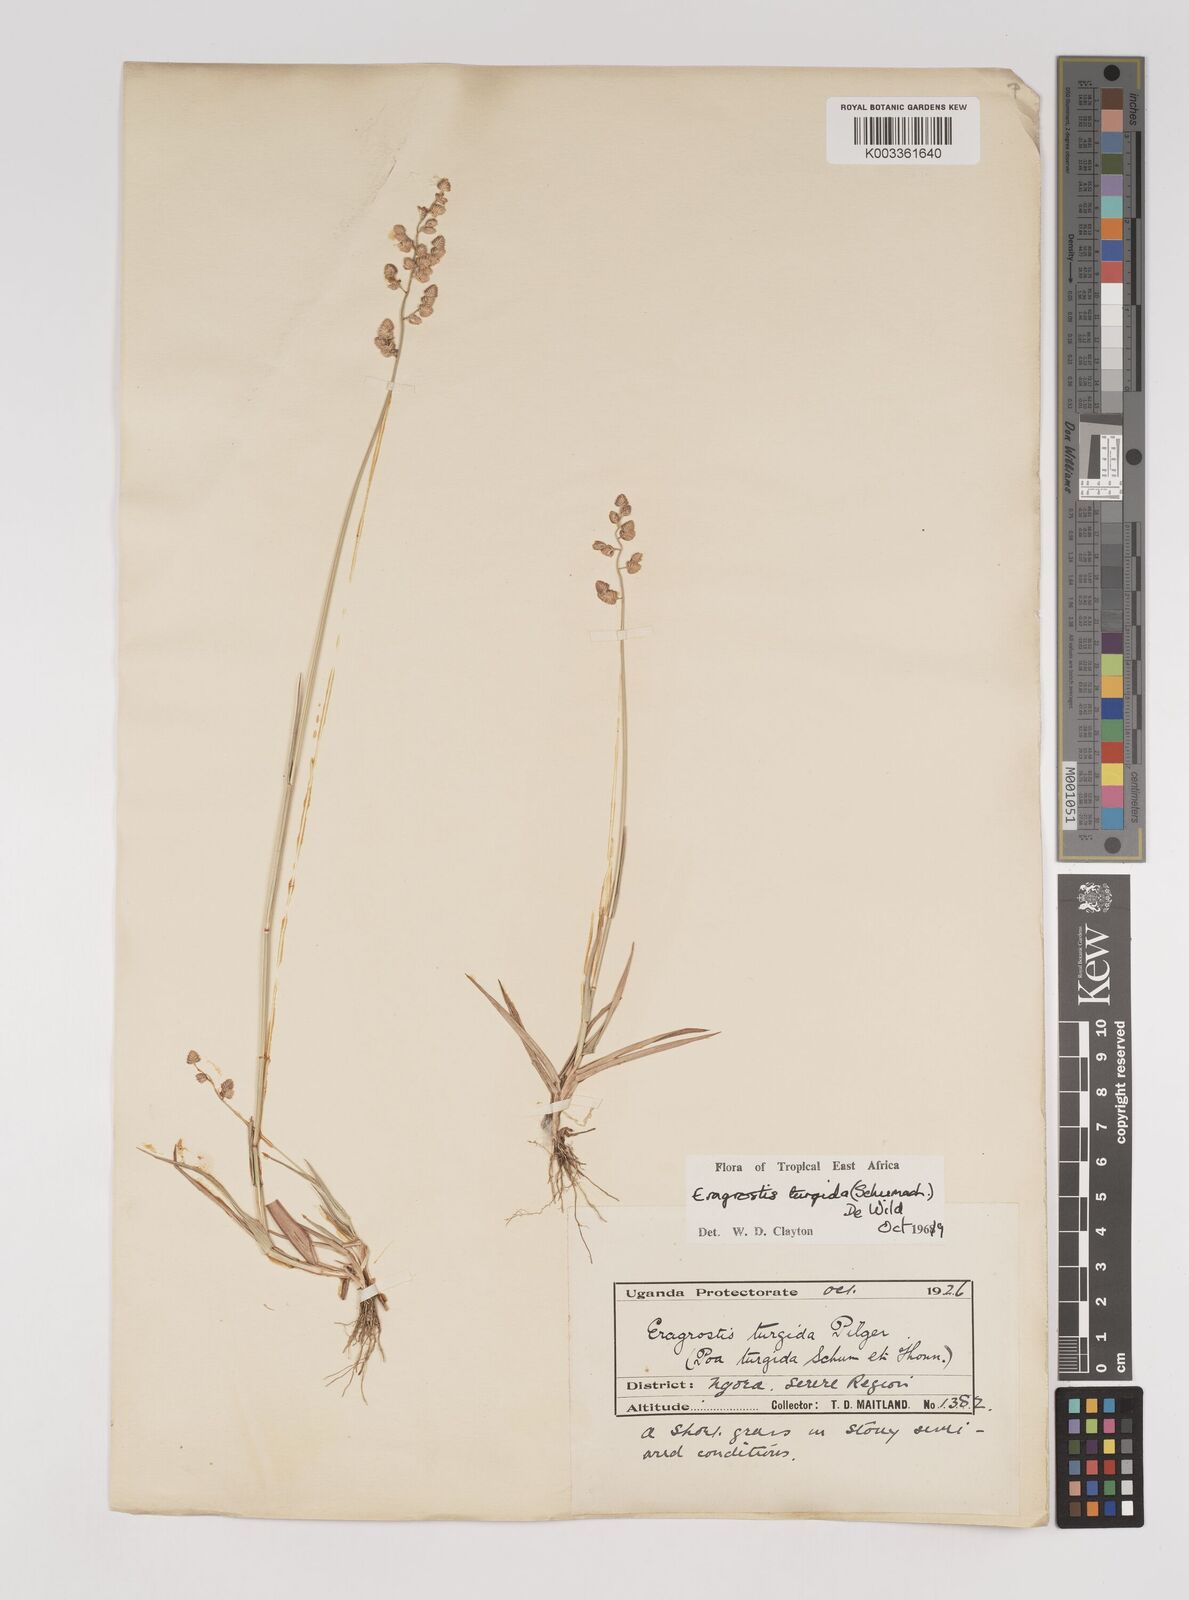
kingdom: Plantae
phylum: Tracheophyta
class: Liliopsida
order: Poales
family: Poaceae
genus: Eragrostis
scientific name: Eragrostis turgida
